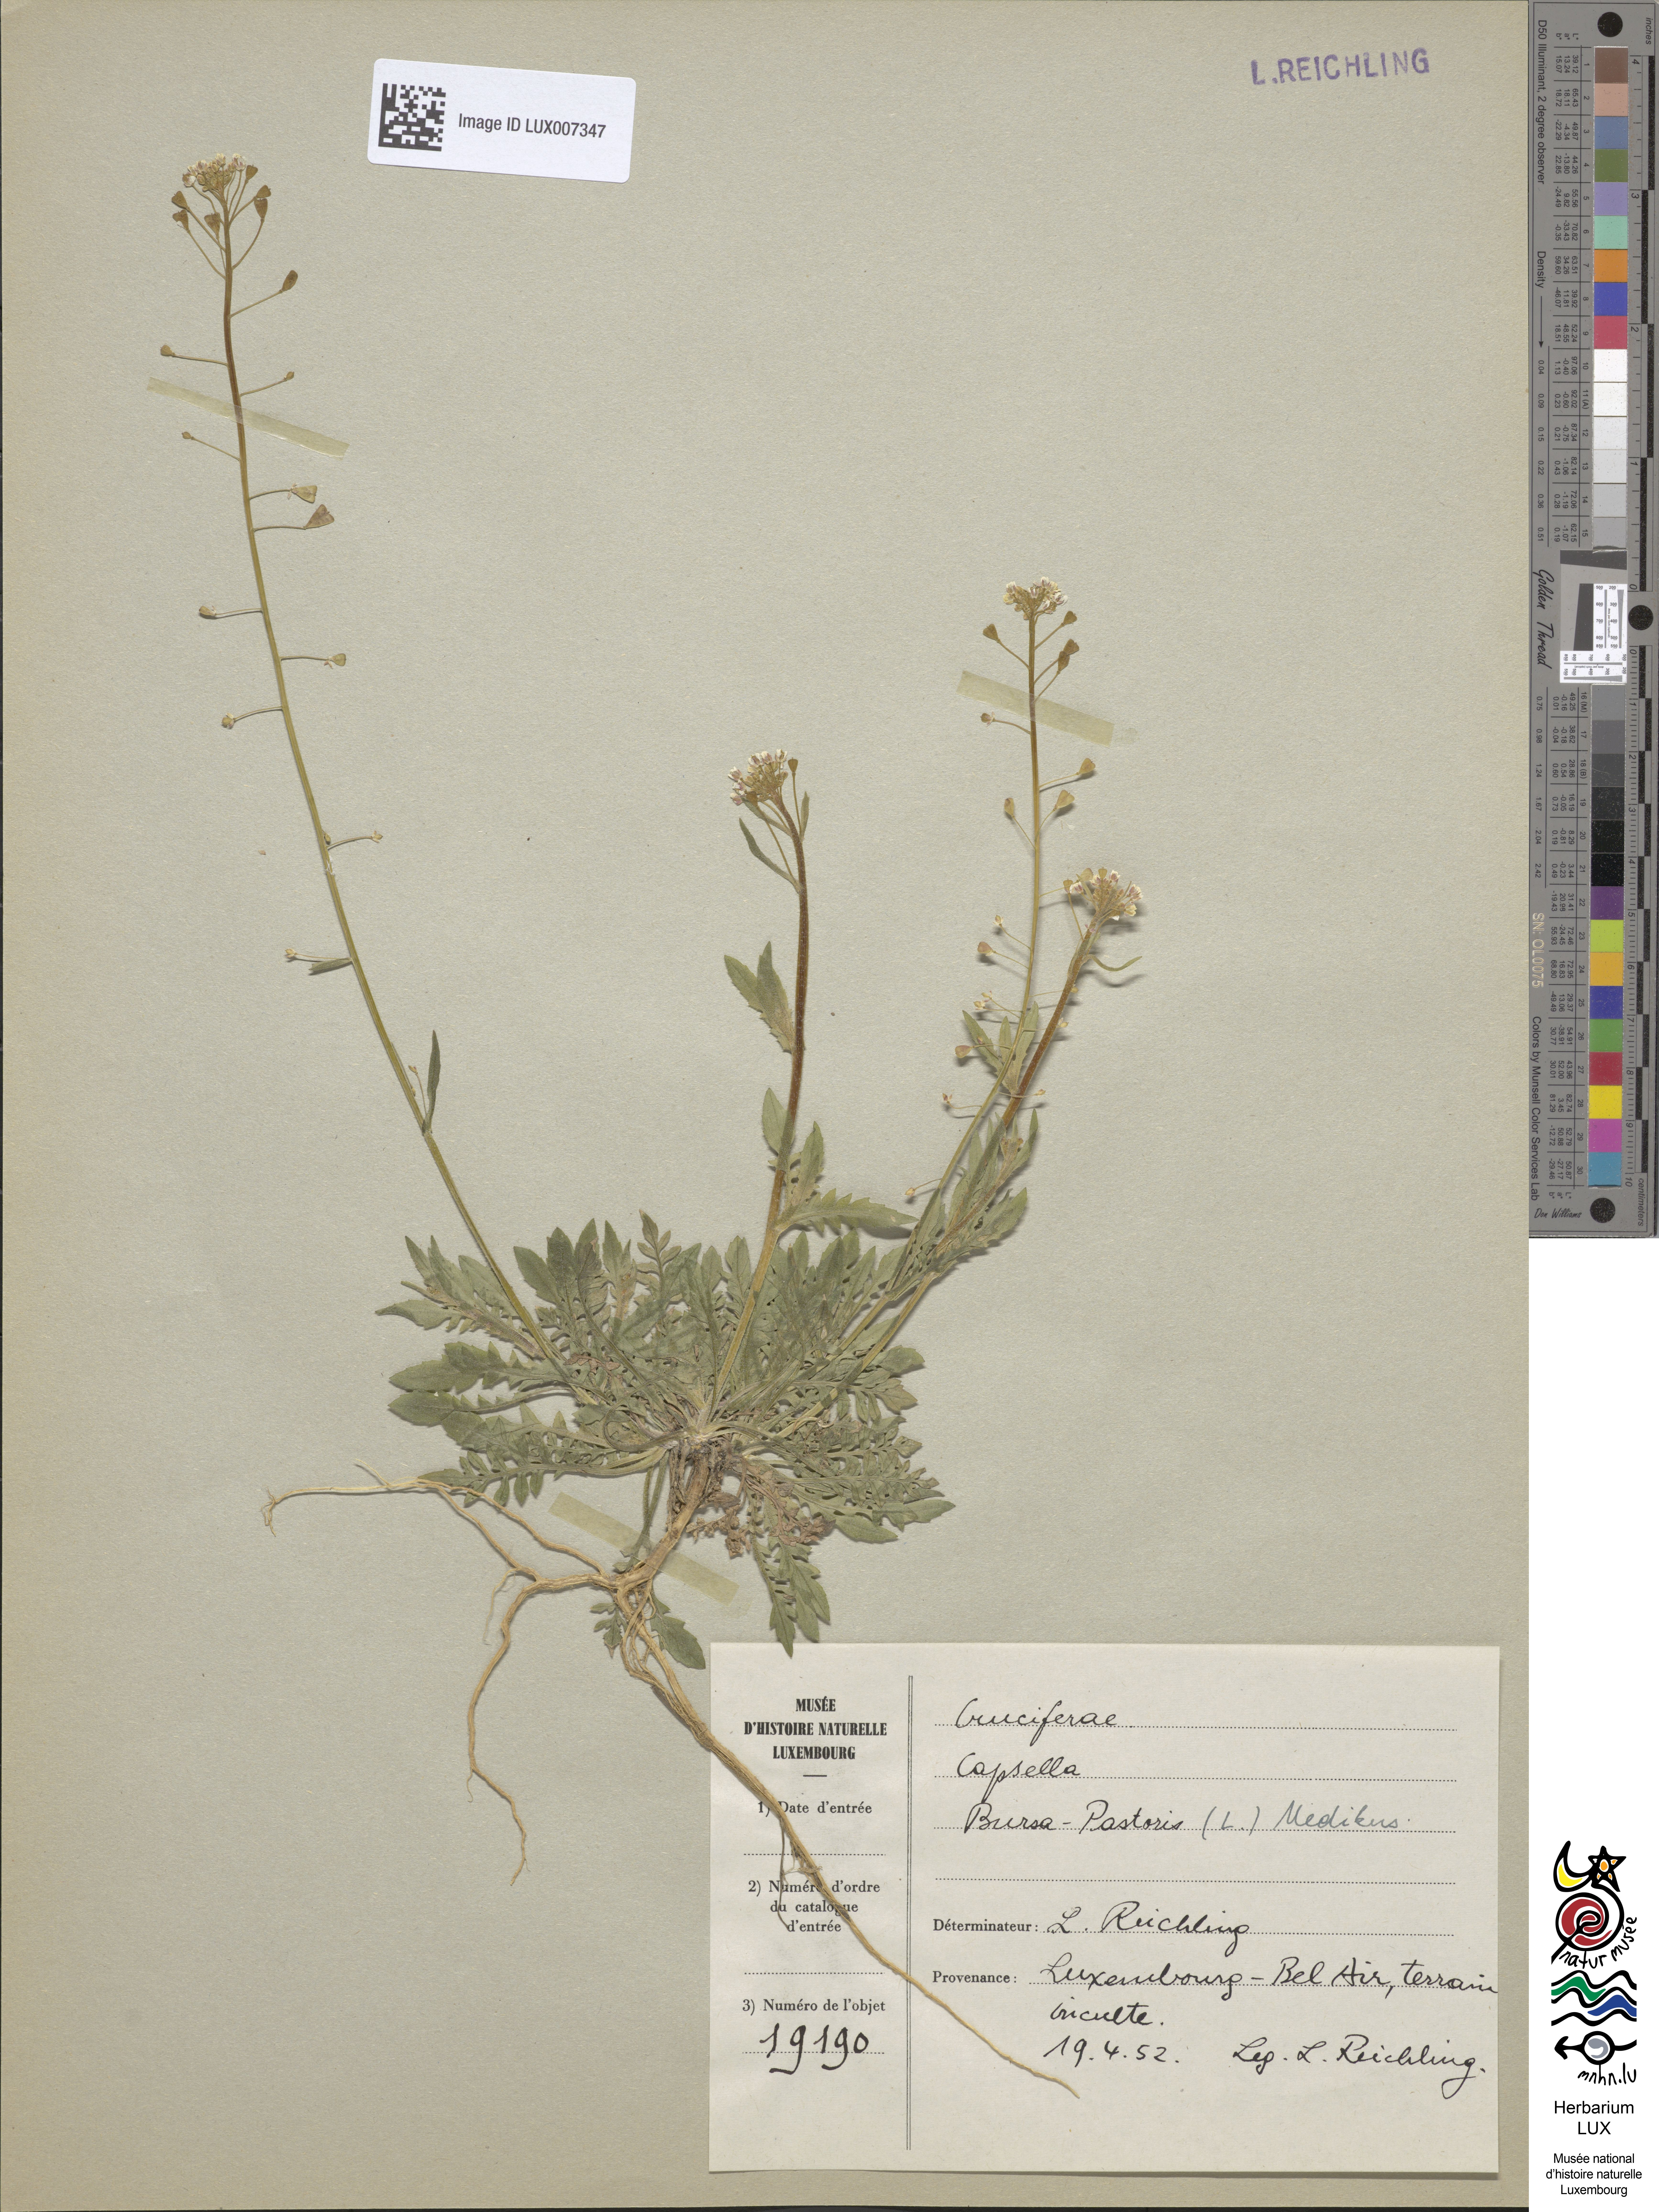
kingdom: Plantae
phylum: Tracheophyta
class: Magnoliopsida
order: Brassicales
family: Brassicaceae
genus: Capsella
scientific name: Capsella bursa-pastoris
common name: Shepherd's purse
